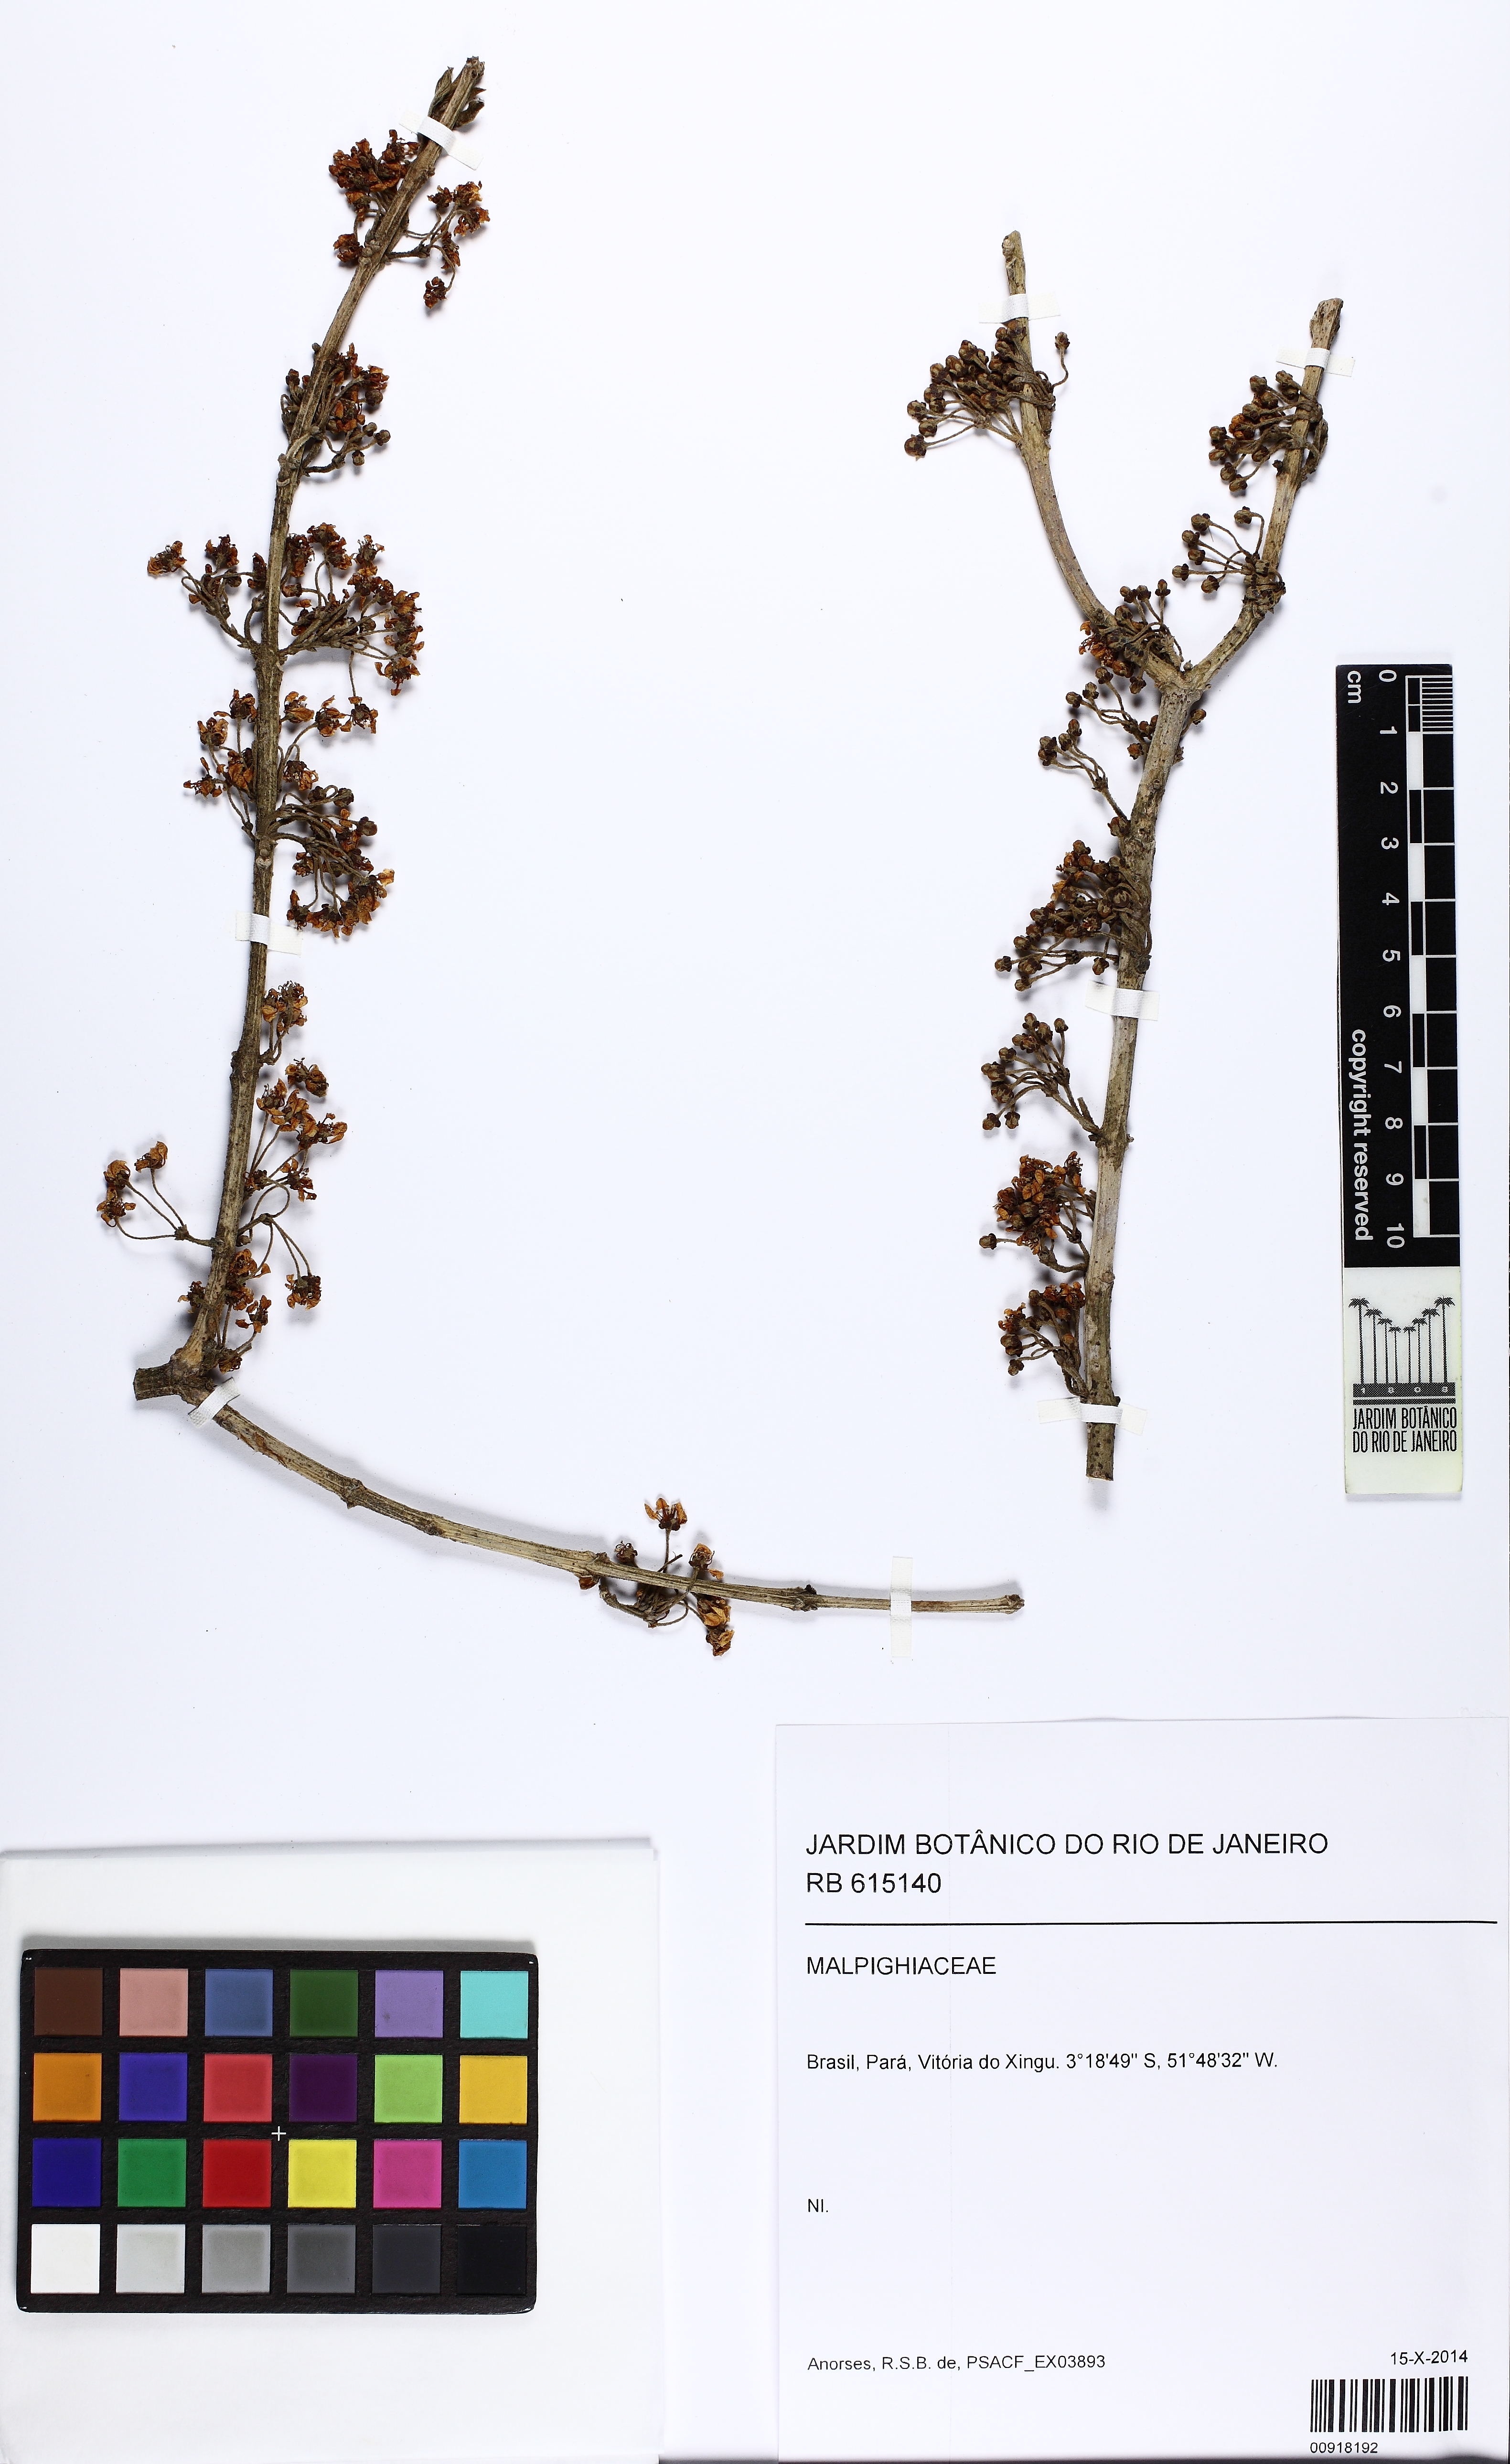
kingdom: Plantae
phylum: Tracheophyta
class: Magnoliopsida
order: Malpighiales
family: Malpighiaceae
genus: Hiraea
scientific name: Hiraea
